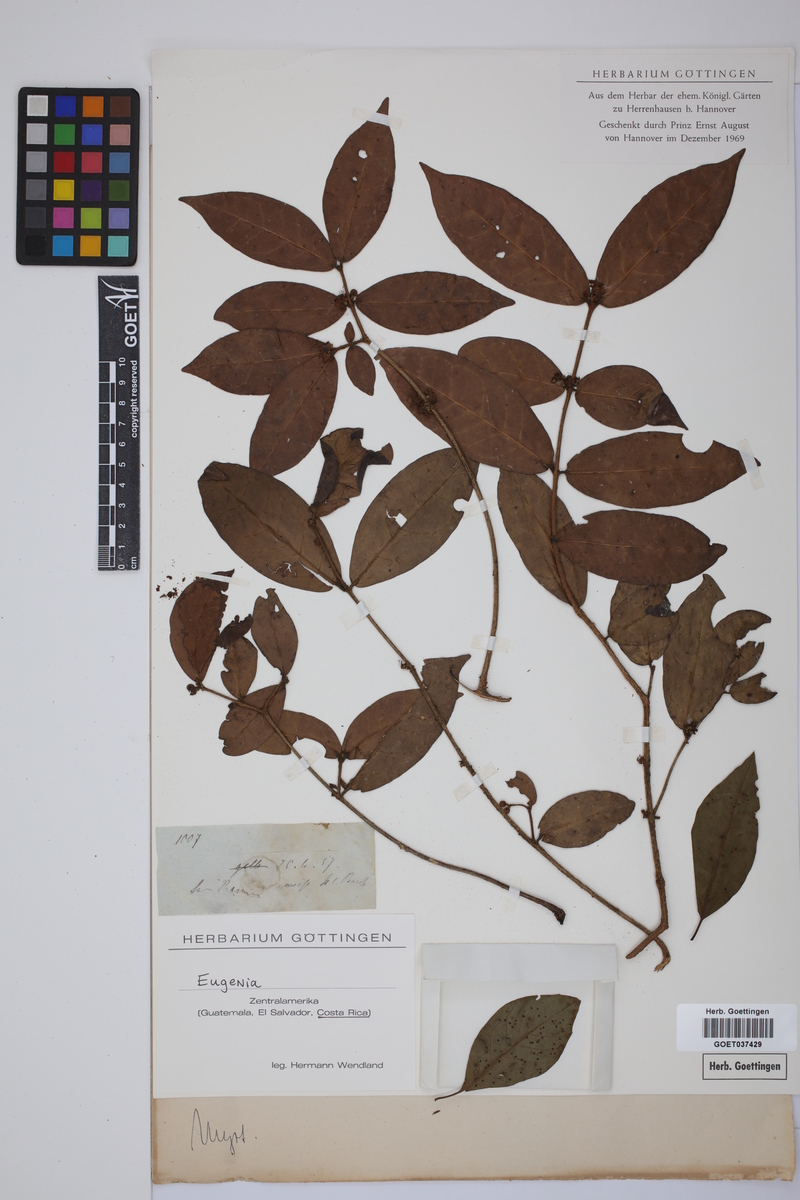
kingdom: Plantae
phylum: Tracheophyta
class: Magnoliopsida
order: Myrtales
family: Myrtaceae
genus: Eugenia
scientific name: Eugenia
